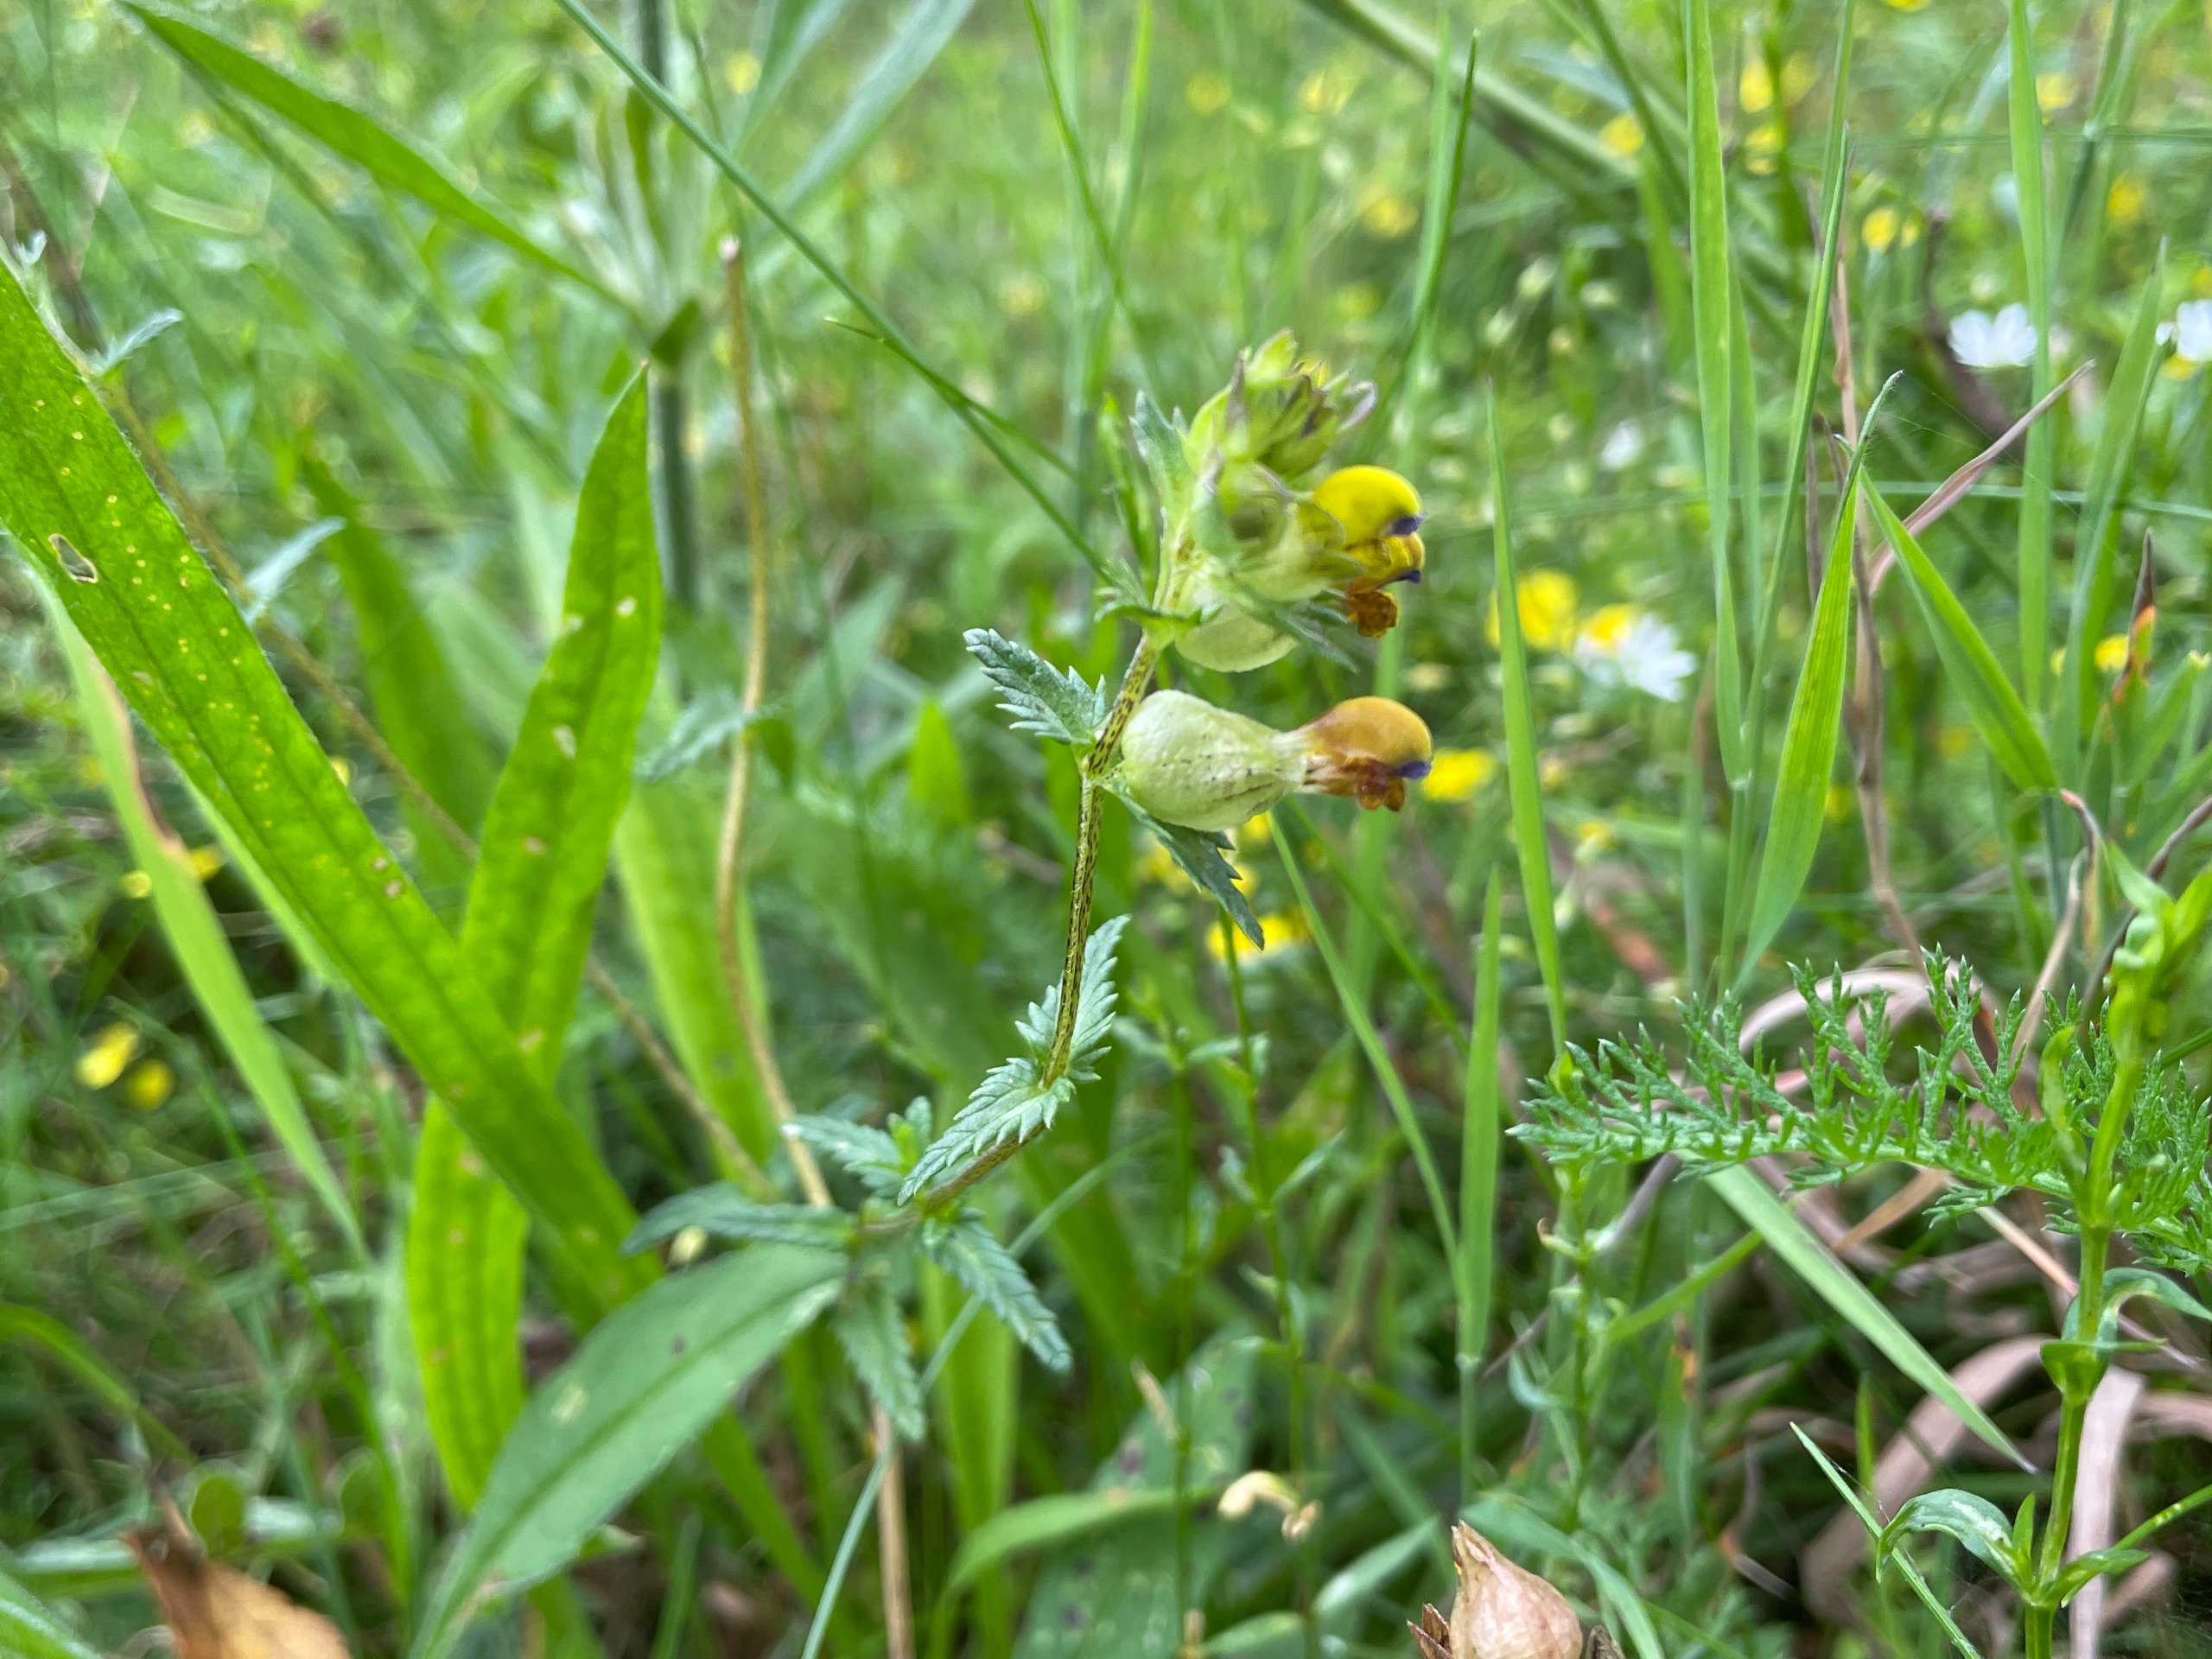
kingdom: Plantae
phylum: Tracheophyta
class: Magnoliopsida
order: Lamiales
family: Orobanchaceae
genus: Rhinanthus
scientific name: Rhinanthus minor
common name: Liden skjaller
